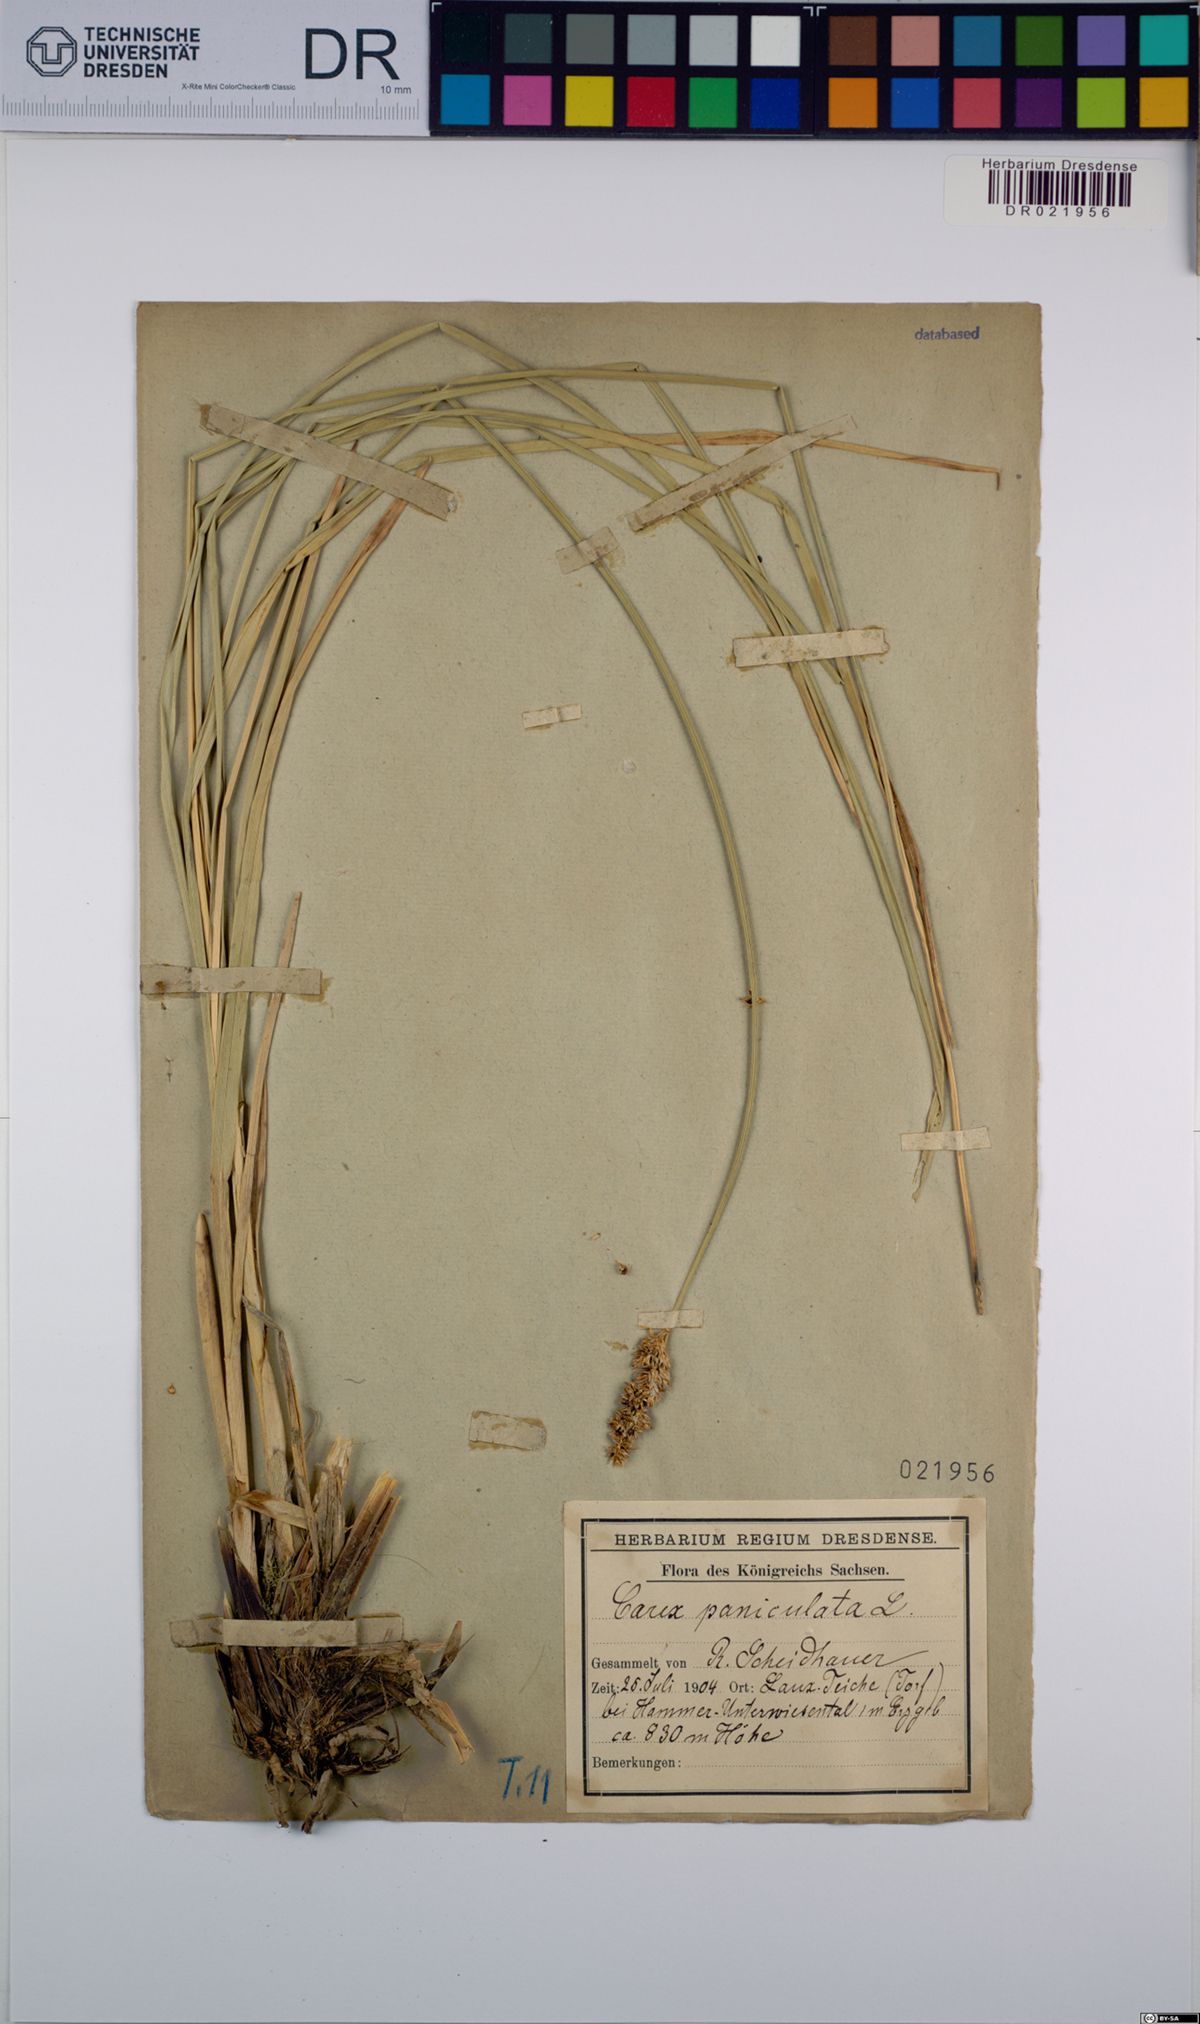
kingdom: Plantae
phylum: Tracheophyta
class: Liliopsida
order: Poales
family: Cyperaceae
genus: Carex
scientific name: Carex paniculata
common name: Greater tussock-sedge
